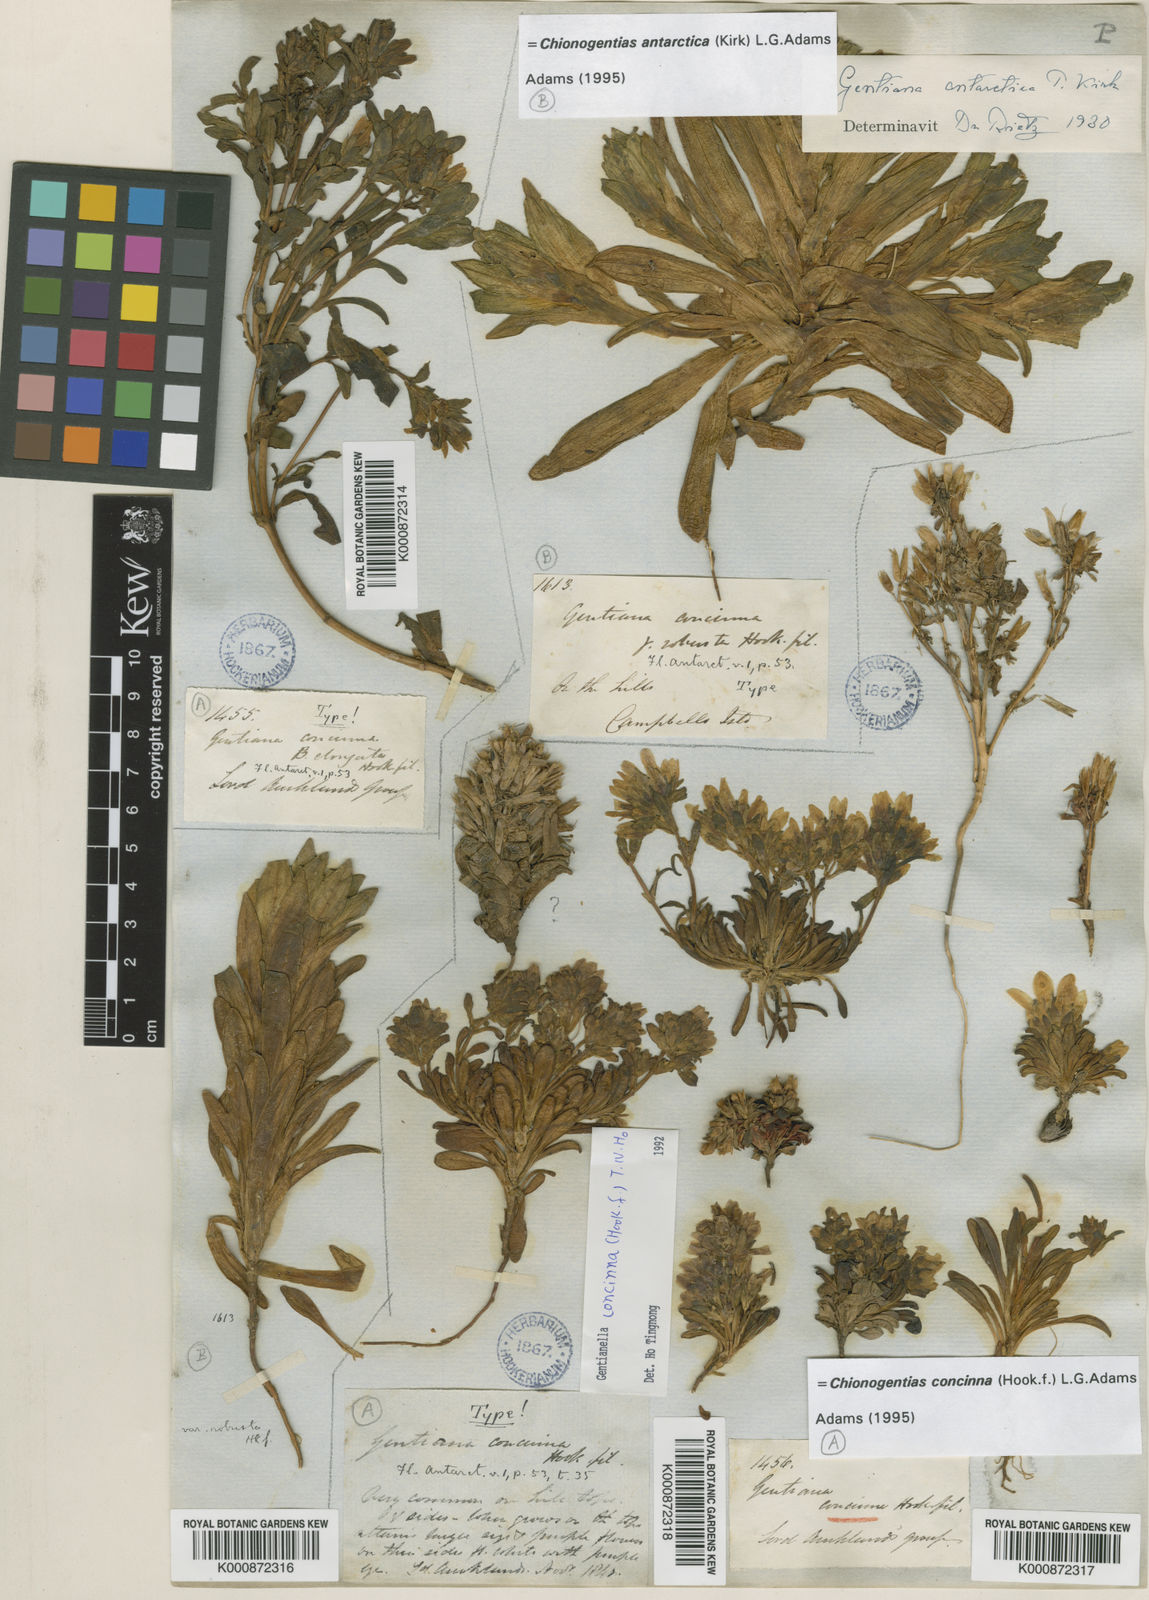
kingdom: Plantae
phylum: Tracheophyta
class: Magnoliopsida
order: Gentianales
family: Gentianaceae
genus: Gentianella
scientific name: Gentianella antarctica
